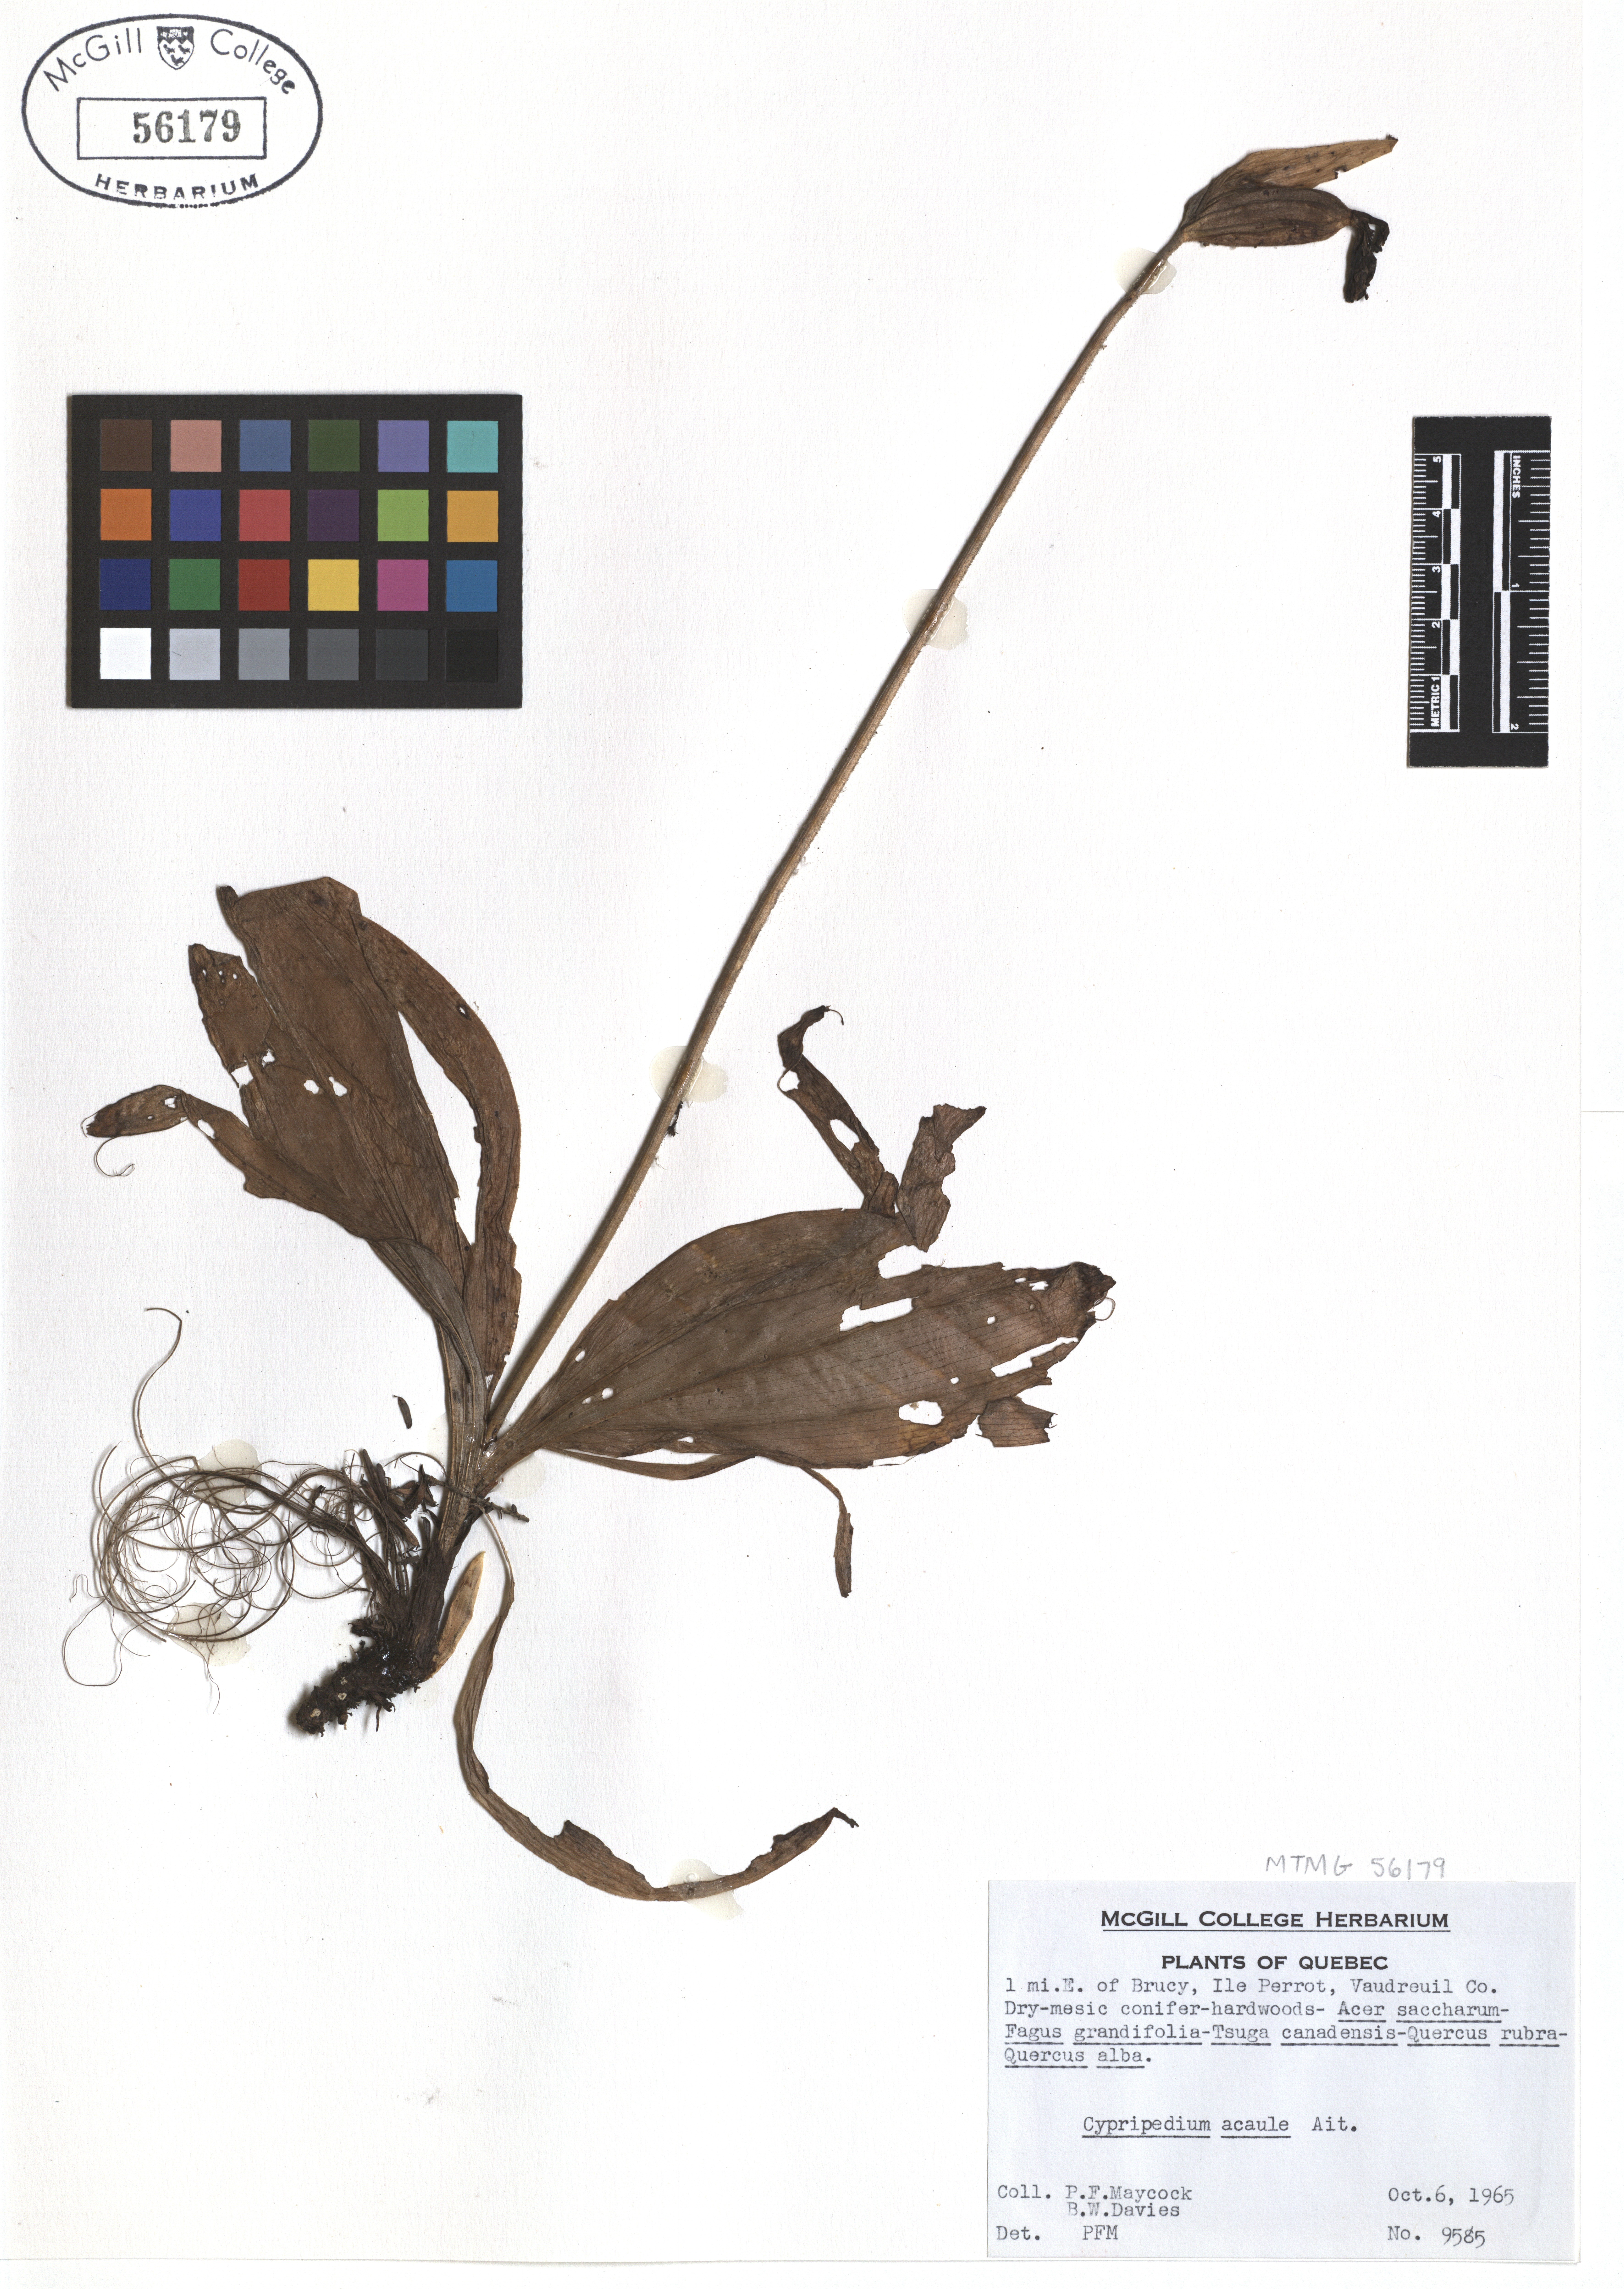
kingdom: Plantae
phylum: Tracheophyta
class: Liliopsida
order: Asparagales
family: Orchidaceae
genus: Cypripedium
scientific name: Cypripedium acaule
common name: Pink lady's-slipper
